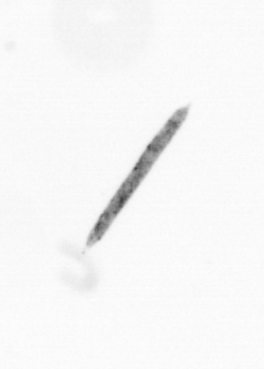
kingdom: Chromista
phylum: Ochrophyta
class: Bacillariophyceae
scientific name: Bacillariophyceae
